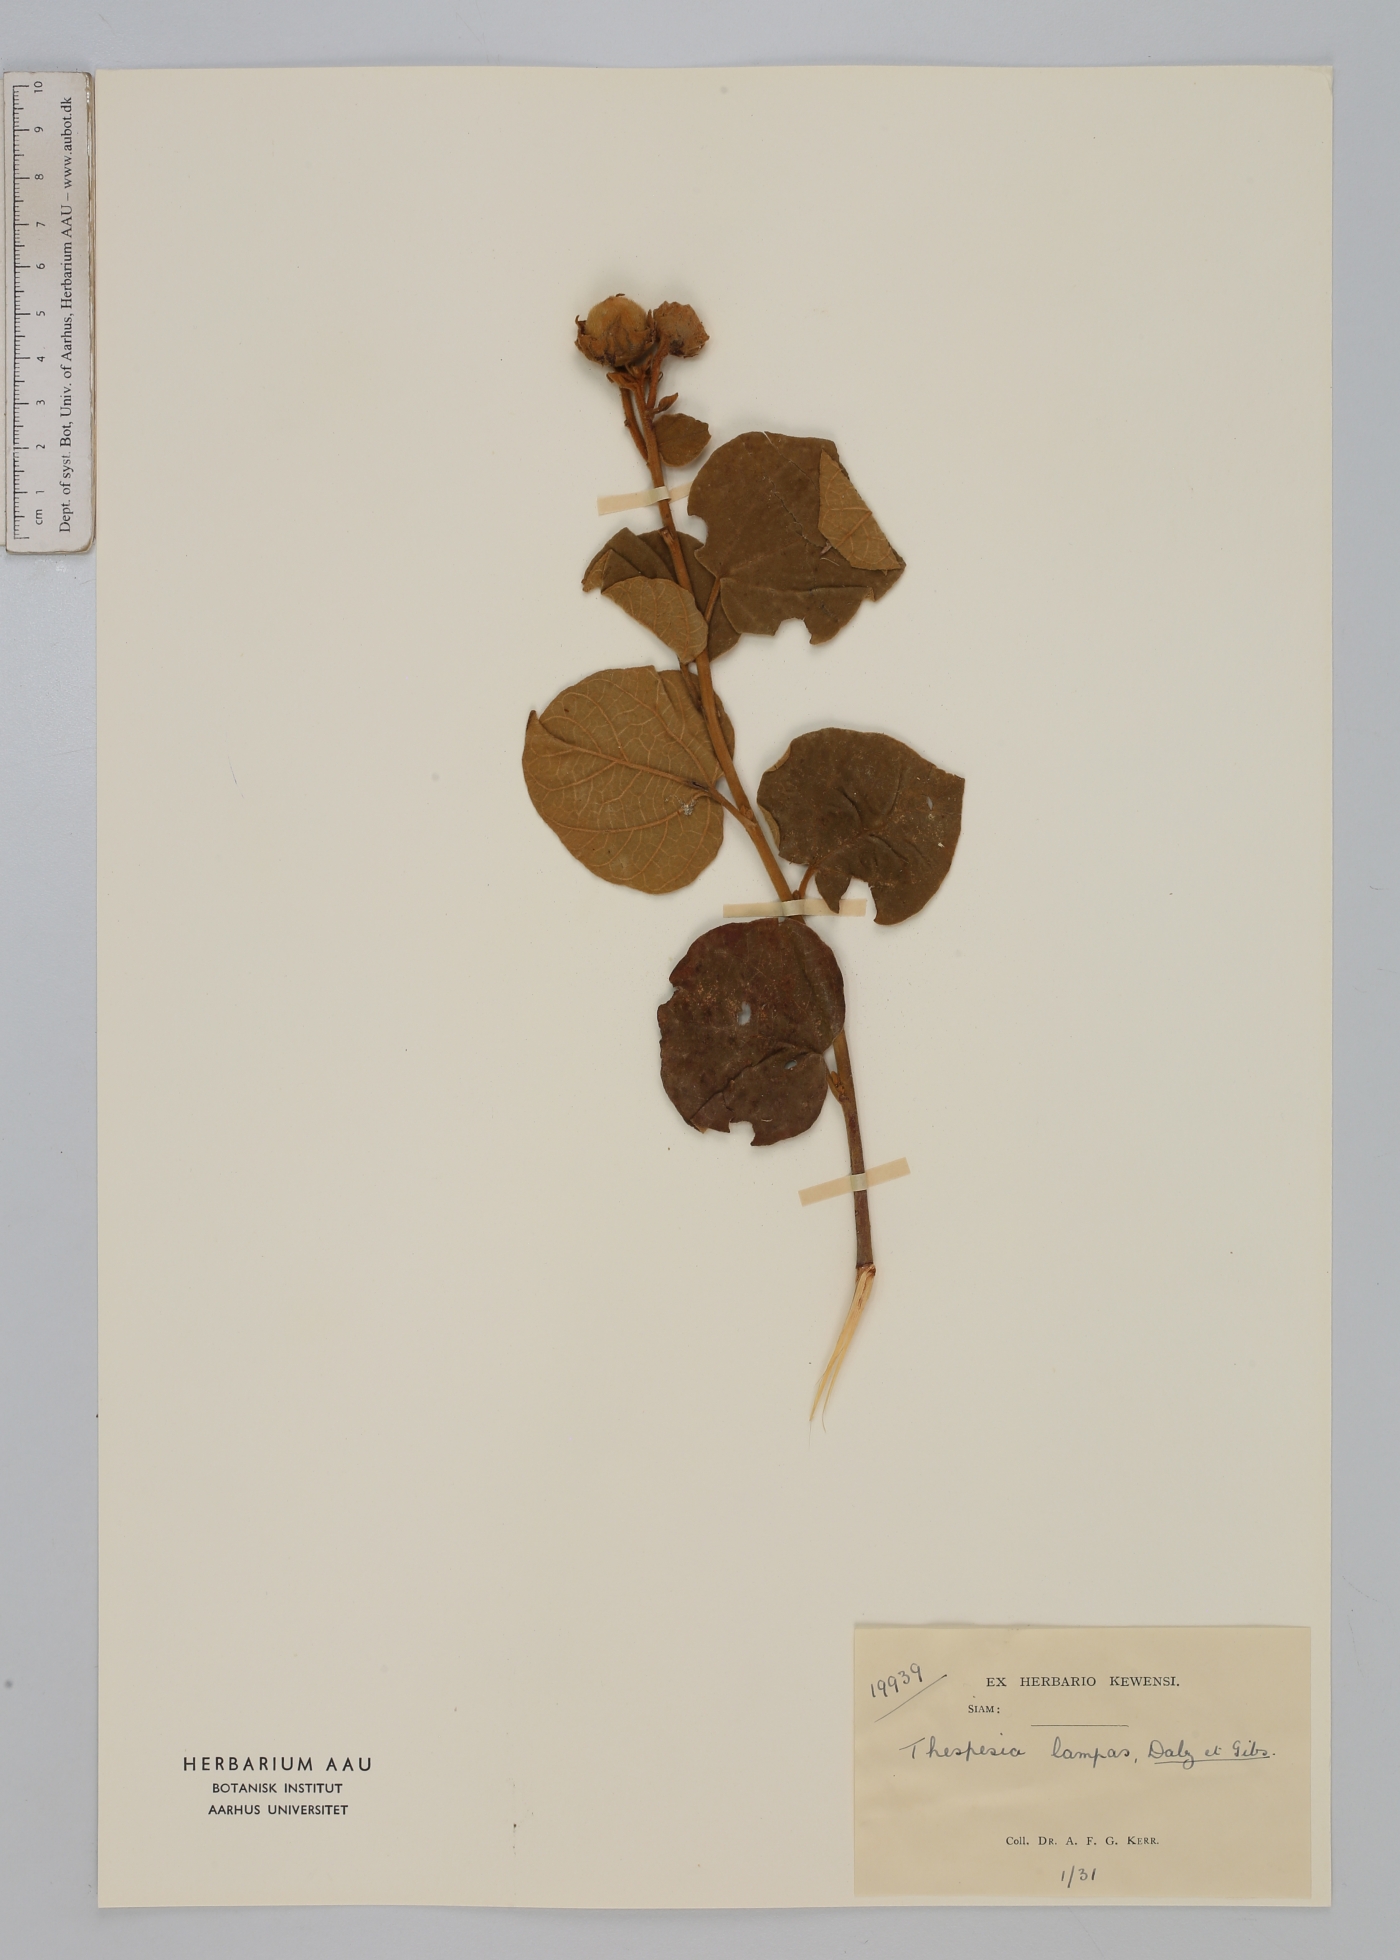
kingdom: Plantae
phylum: Tracheophyta
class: Magnoliopsida
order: Malvales
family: Malvaceae
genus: Thespesia
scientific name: Thespesia lampas
